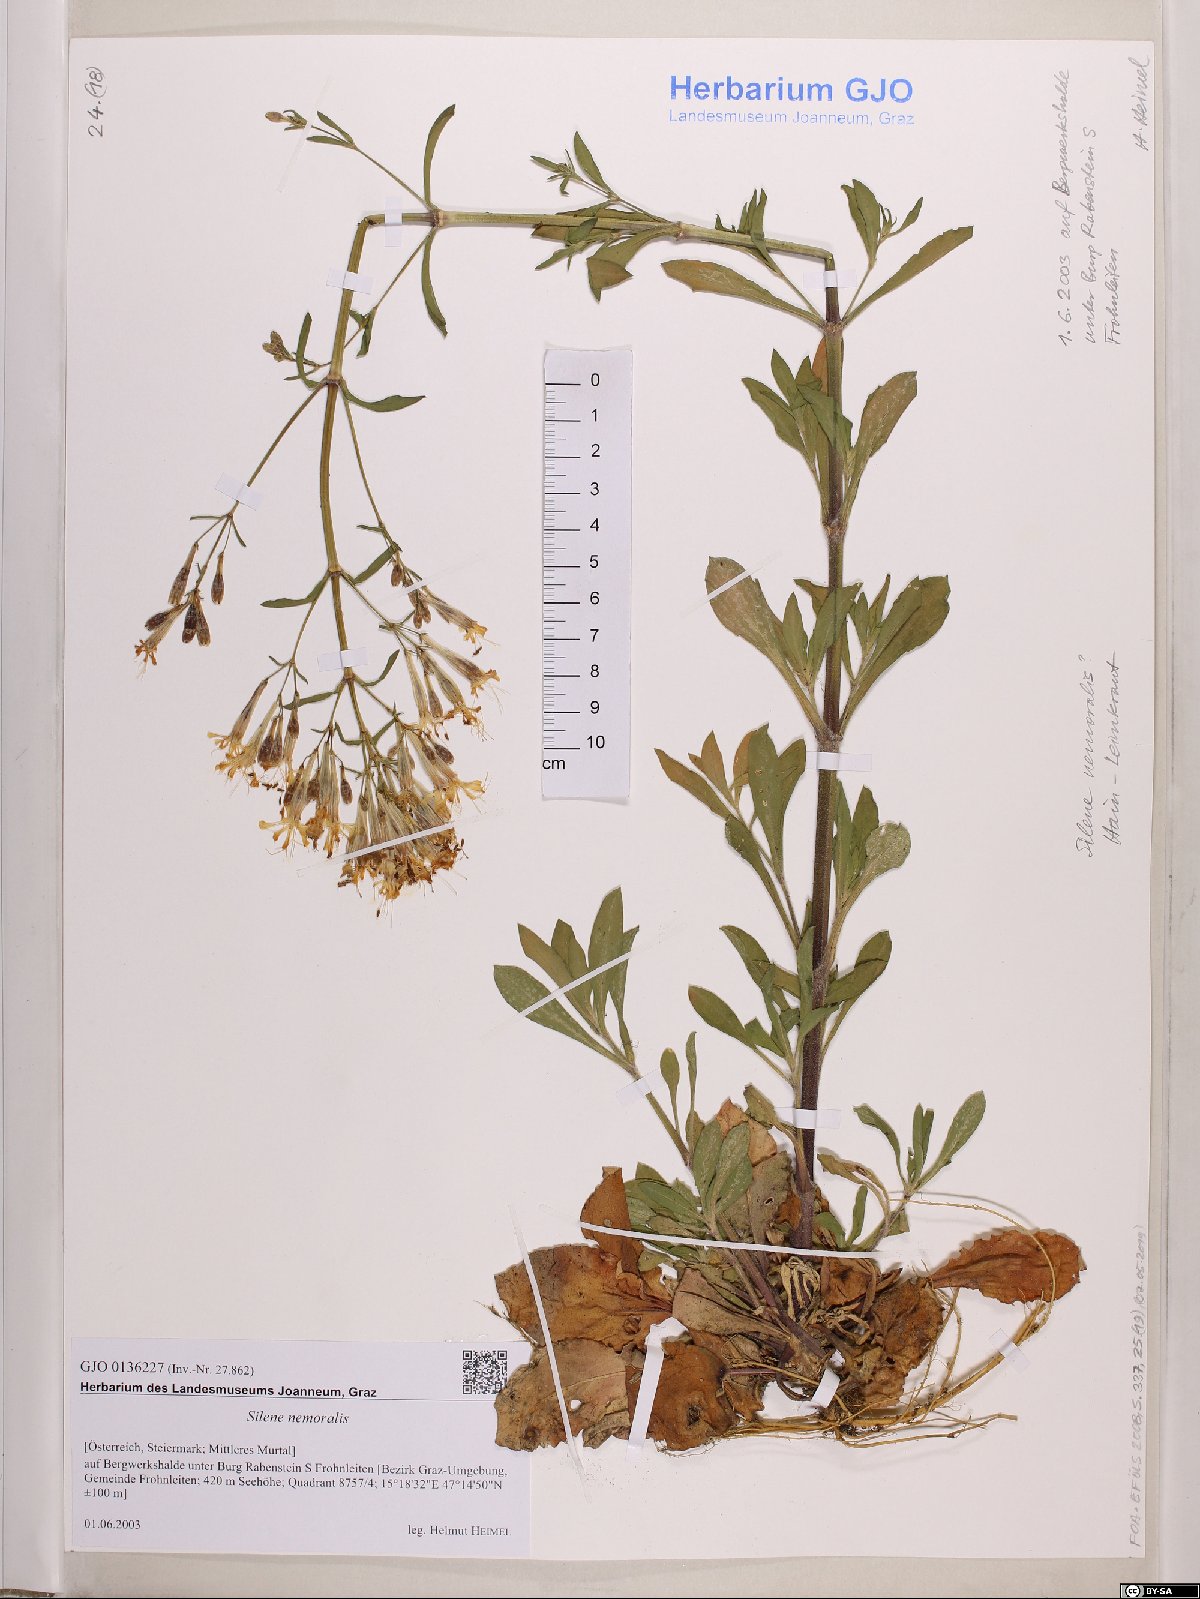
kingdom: Plantae
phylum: Tracheophyta
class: Magnoliopsida
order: Caryophyllales
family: Caryophyllaceae
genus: Silene
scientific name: Silene nemoralis
